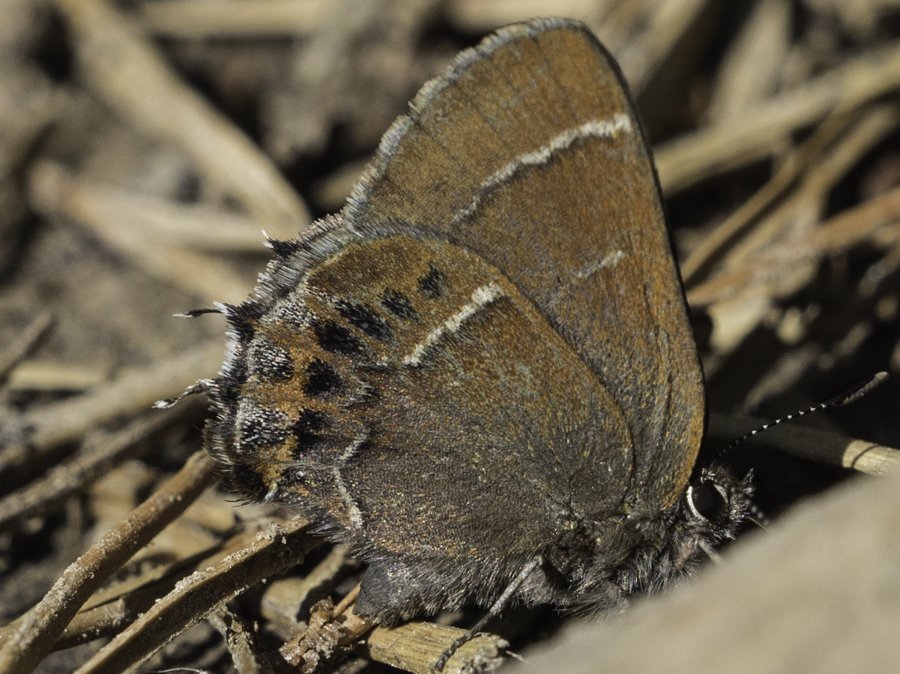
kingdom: Animalia
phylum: Arthropoda
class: Insecta
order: Lepidoptera
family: Lycaenidae
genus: Mitoura
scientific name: Mitoura spinetorum
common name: Thicket Hairstreak
